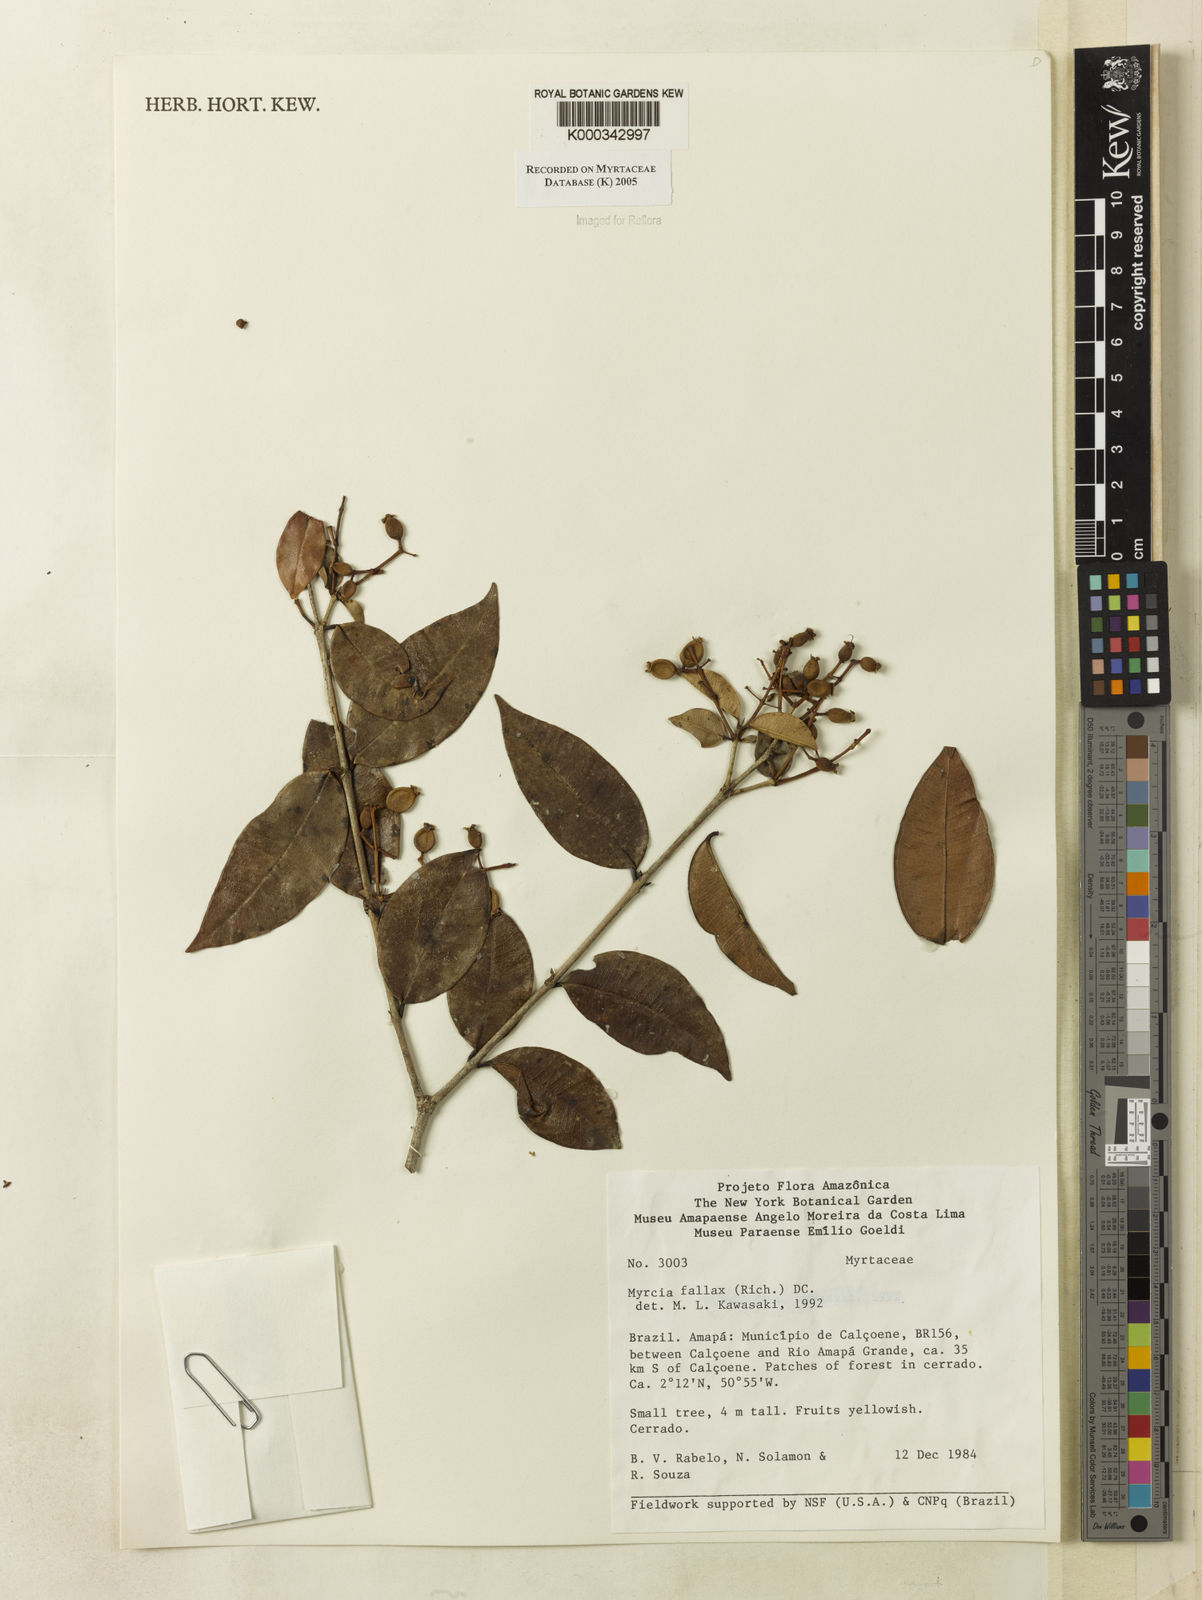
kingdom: Plantae
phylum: Tracheophyta
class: Magnoliopsida
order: Myrtales
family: Myrtaceae
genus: Myrcia
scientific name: Myrcia splendens
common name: Surinam cherry
